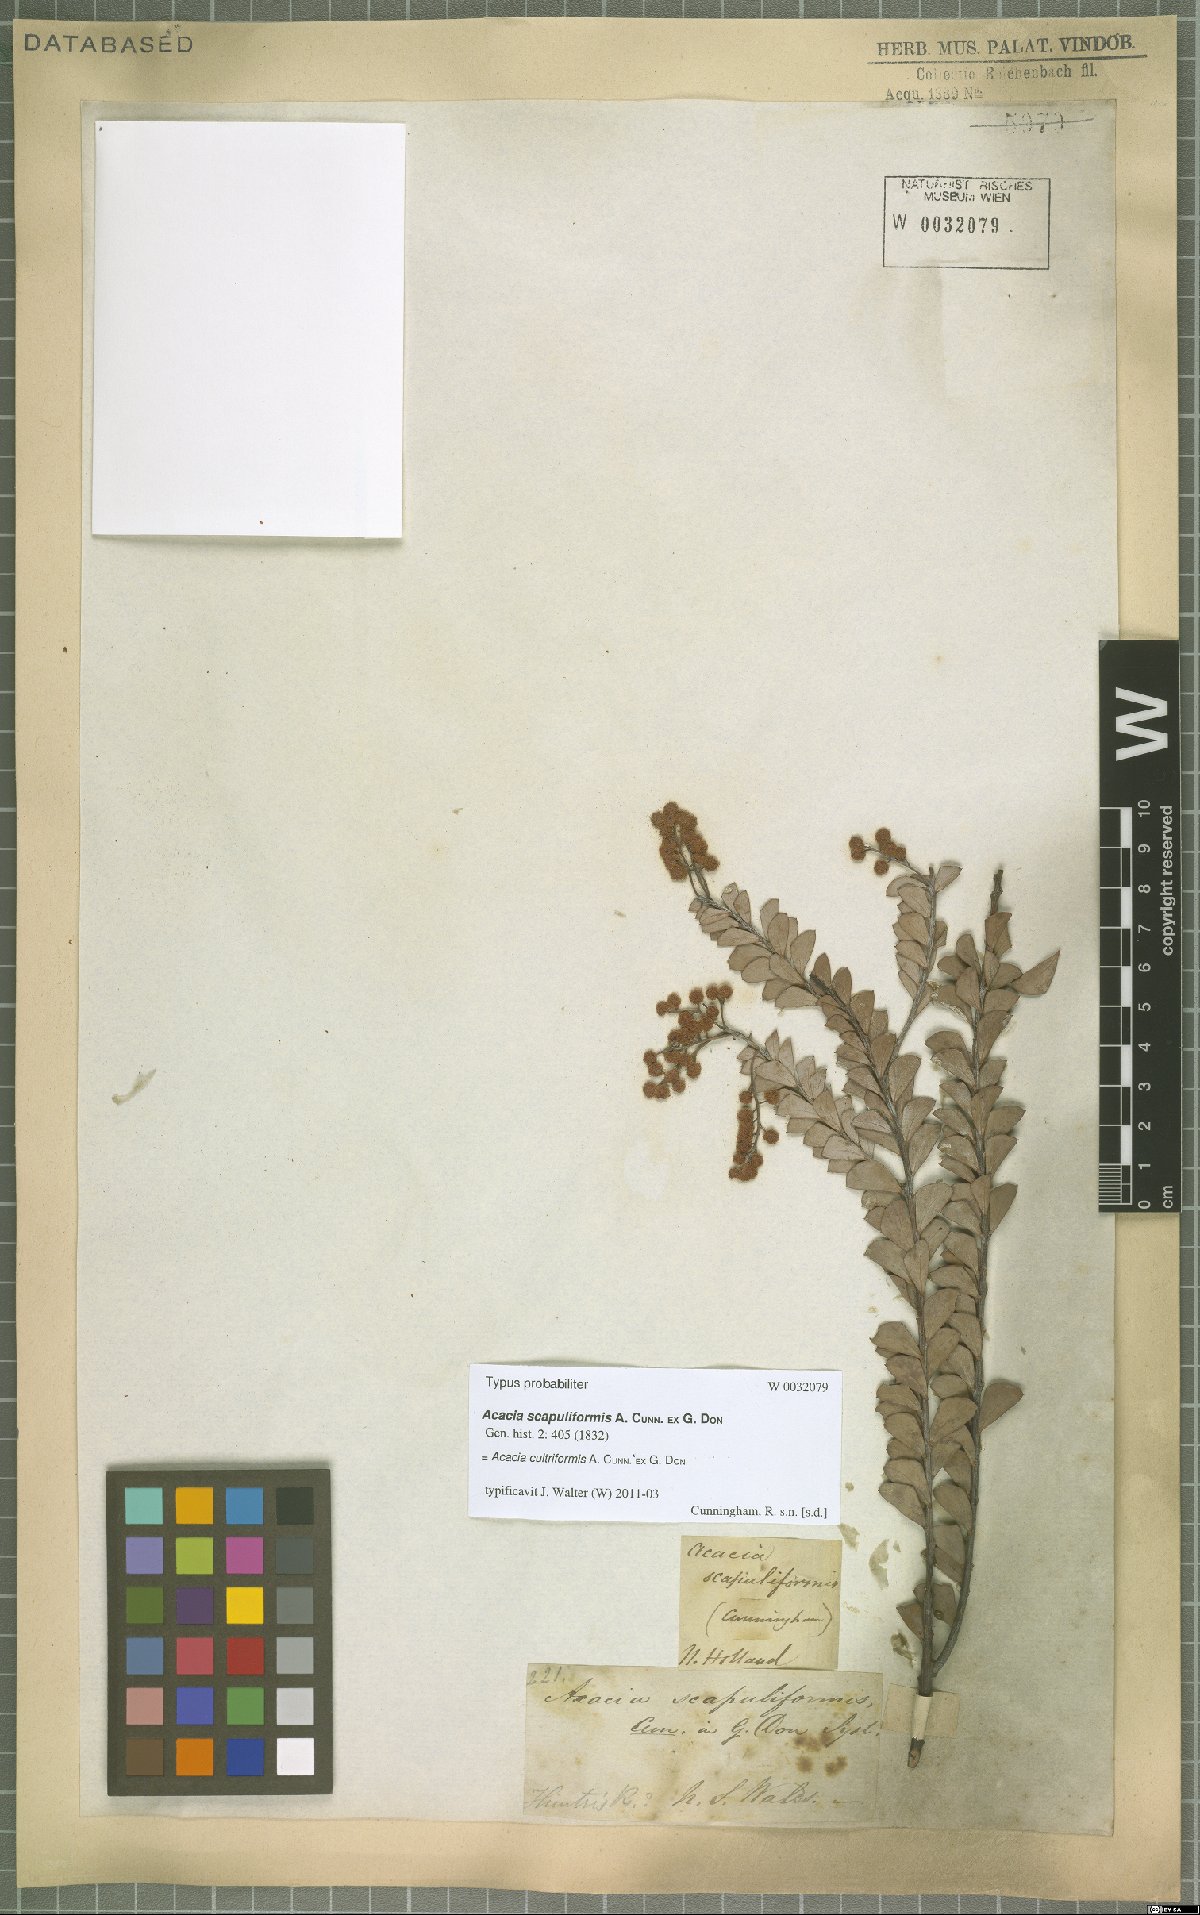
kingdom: Plantae
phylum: Tracheophyta
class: Magnoliopsida
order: Fabales
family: Fabaceae
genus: Acacia
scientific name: Acacia cultriformis
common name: Knife acacia
